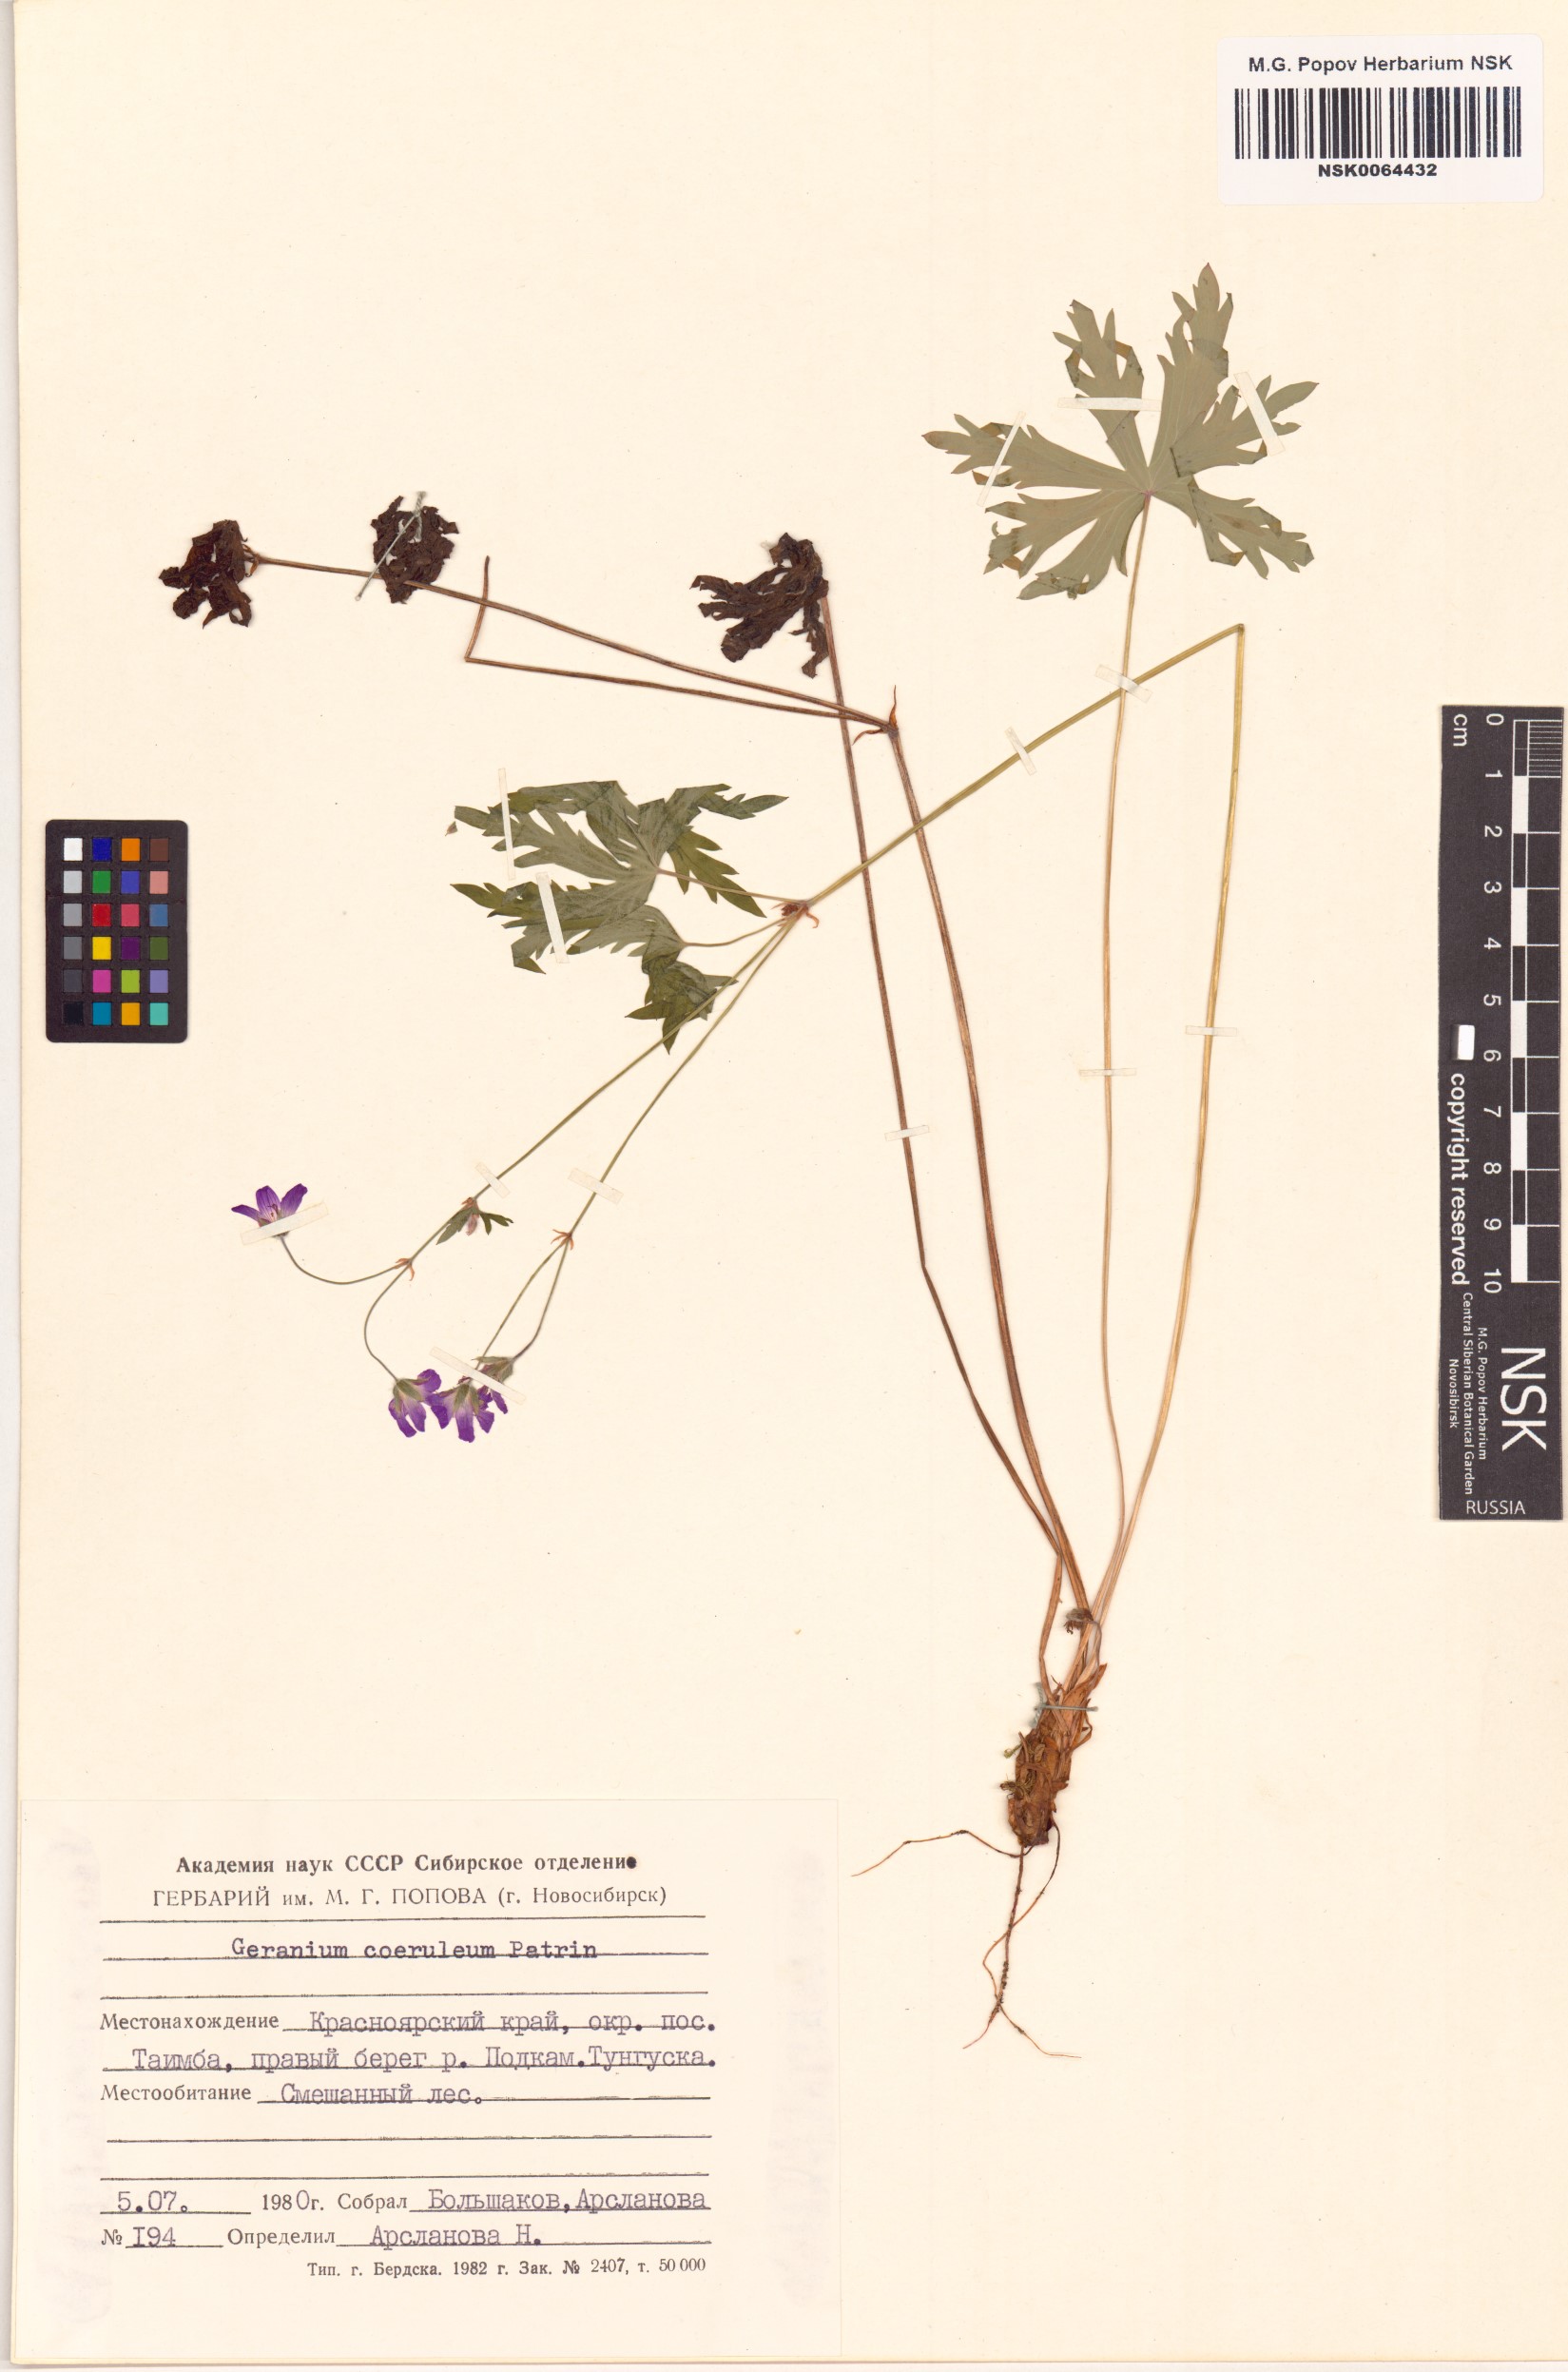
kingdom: Plantae
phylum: Tracheophyta
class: Magnoliopsida
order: Geraniales
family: Geraniaceae
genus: Geranium
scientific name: Geranium pseudosibiricum
